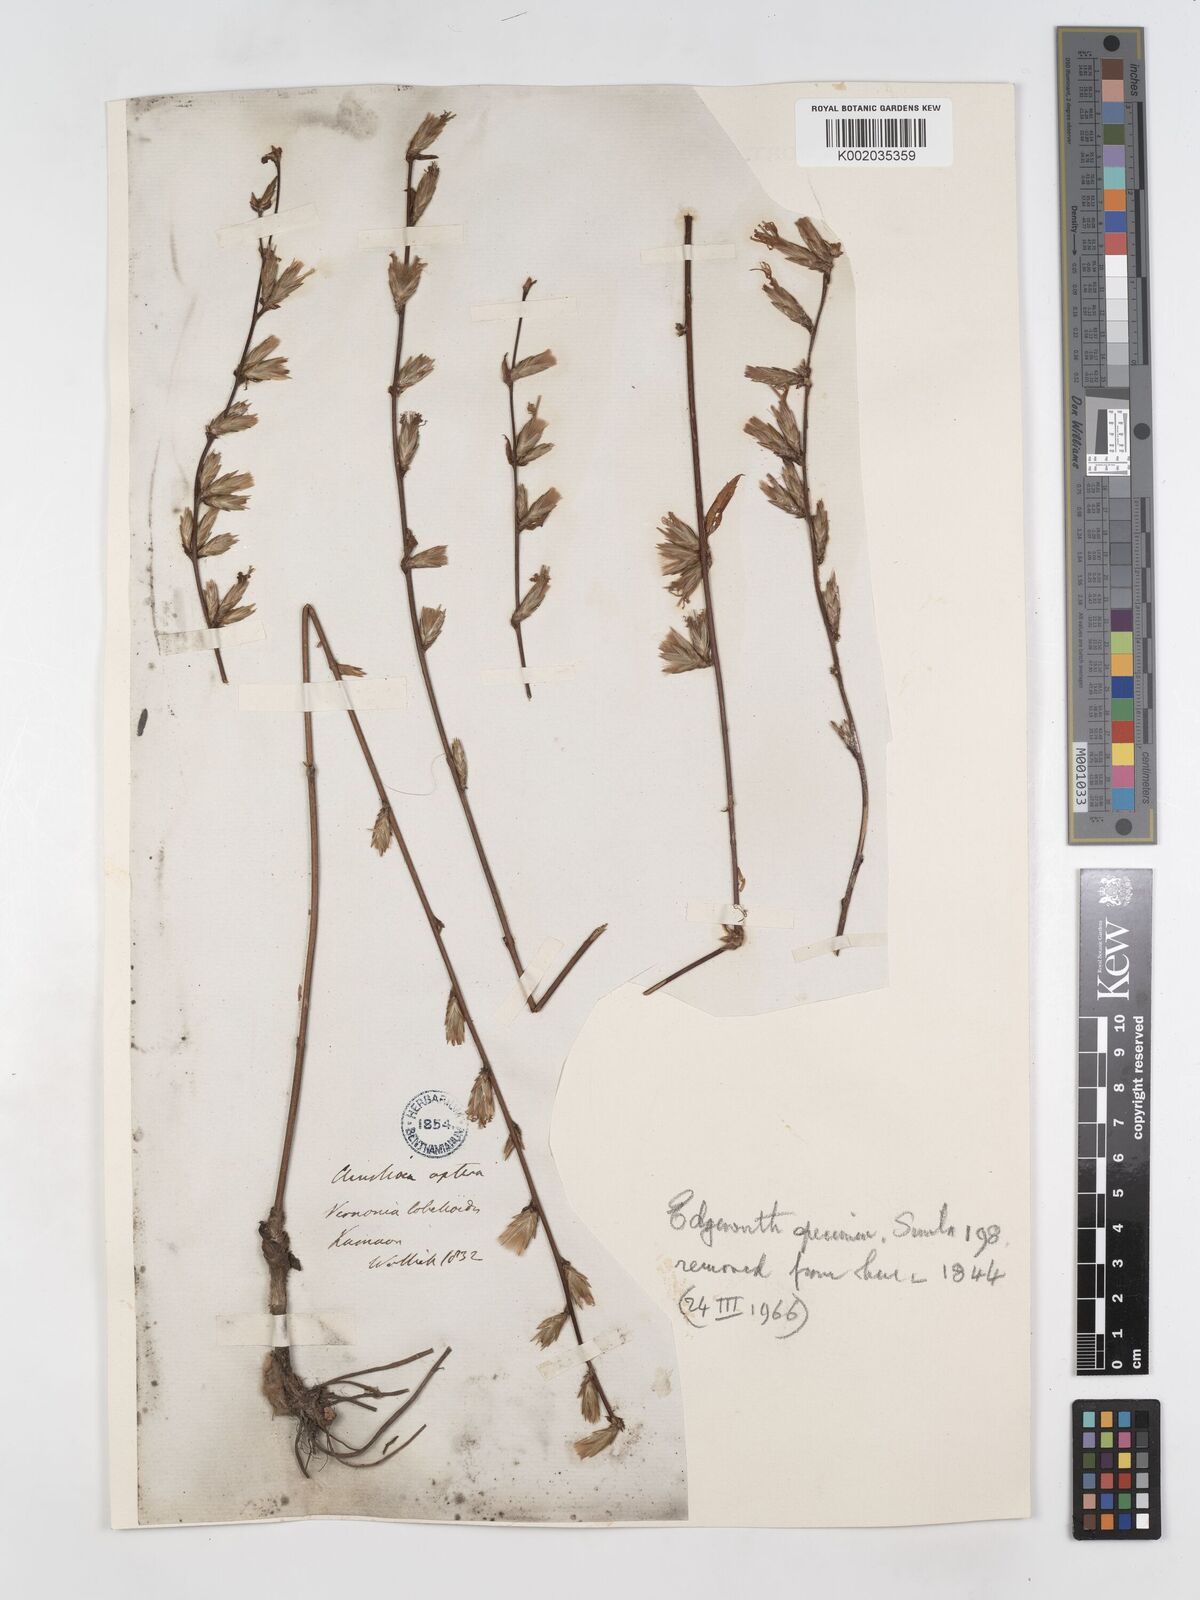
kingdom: Plantae
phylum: Tracheophyta
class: Magnoliopsida
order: Asterales
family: Asteraceae
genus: Ainsliaea
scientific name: Ainsliaea aptera
